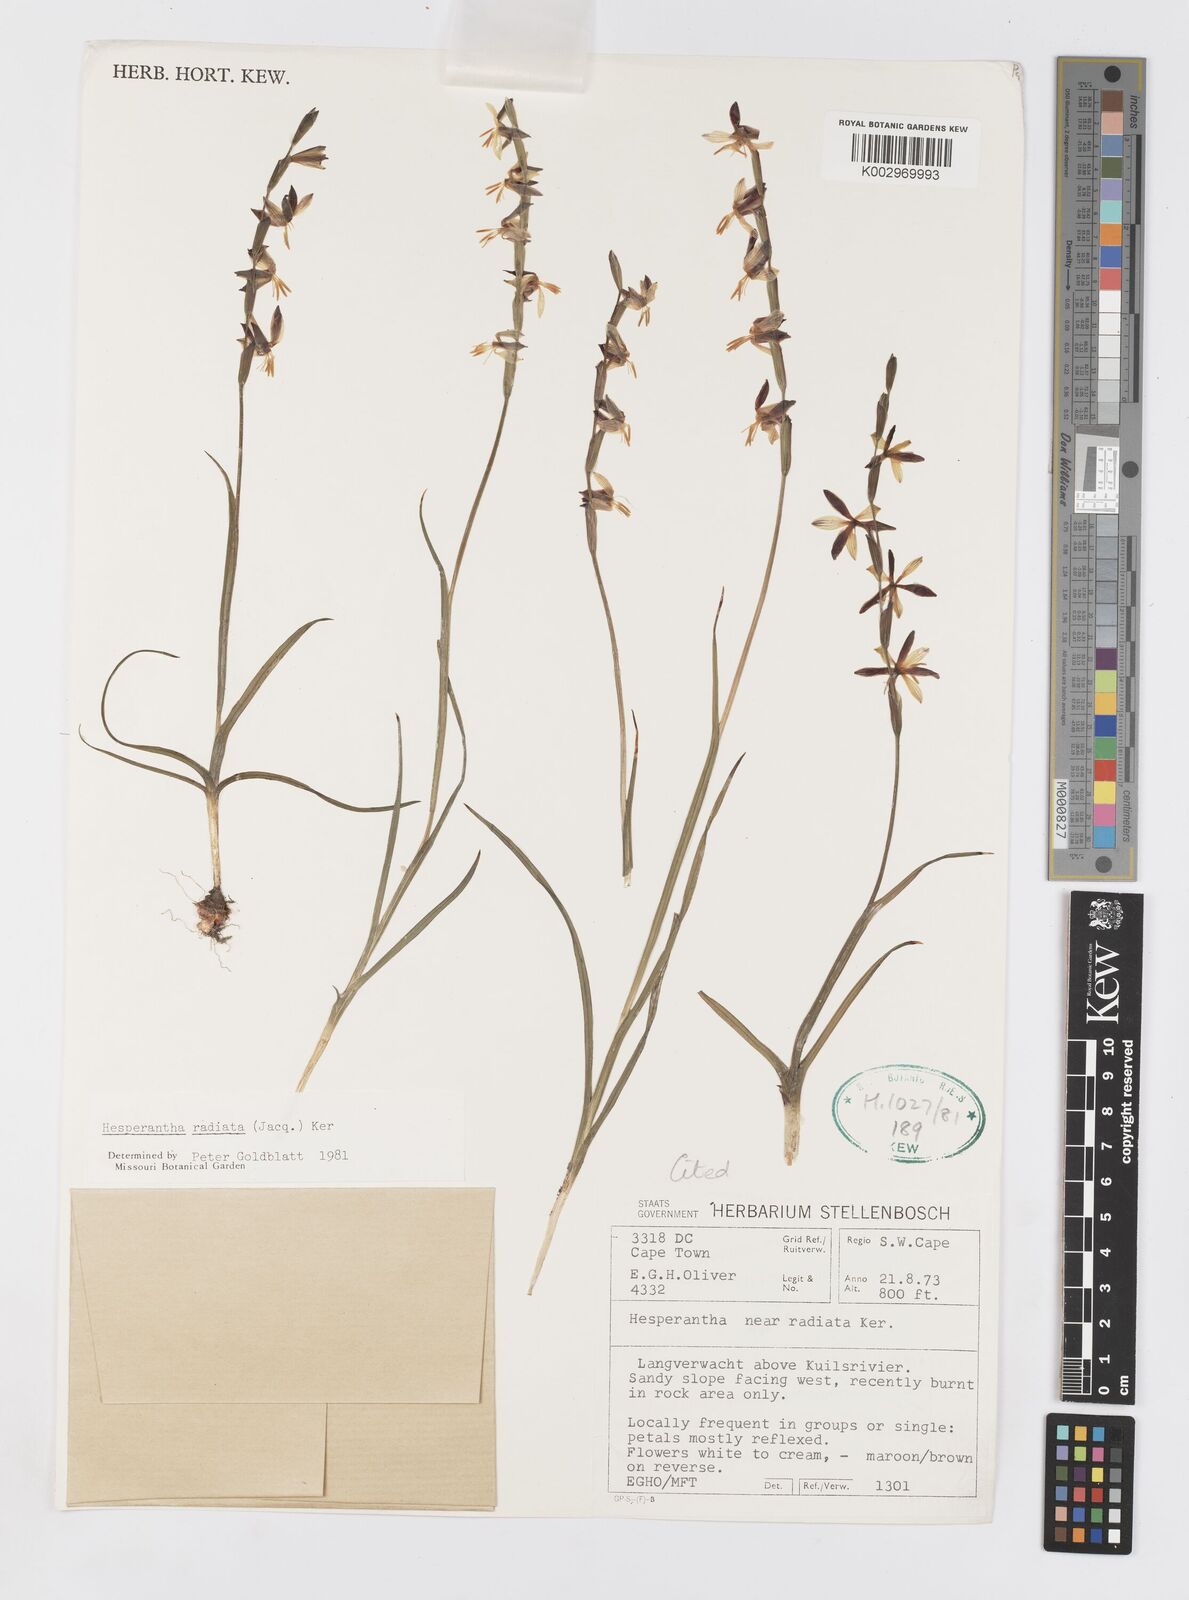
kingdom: Plantae
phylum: Tracheophyta
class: Liliopsida
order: Asparagales
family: Iridaceae
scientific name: Iridaceae
